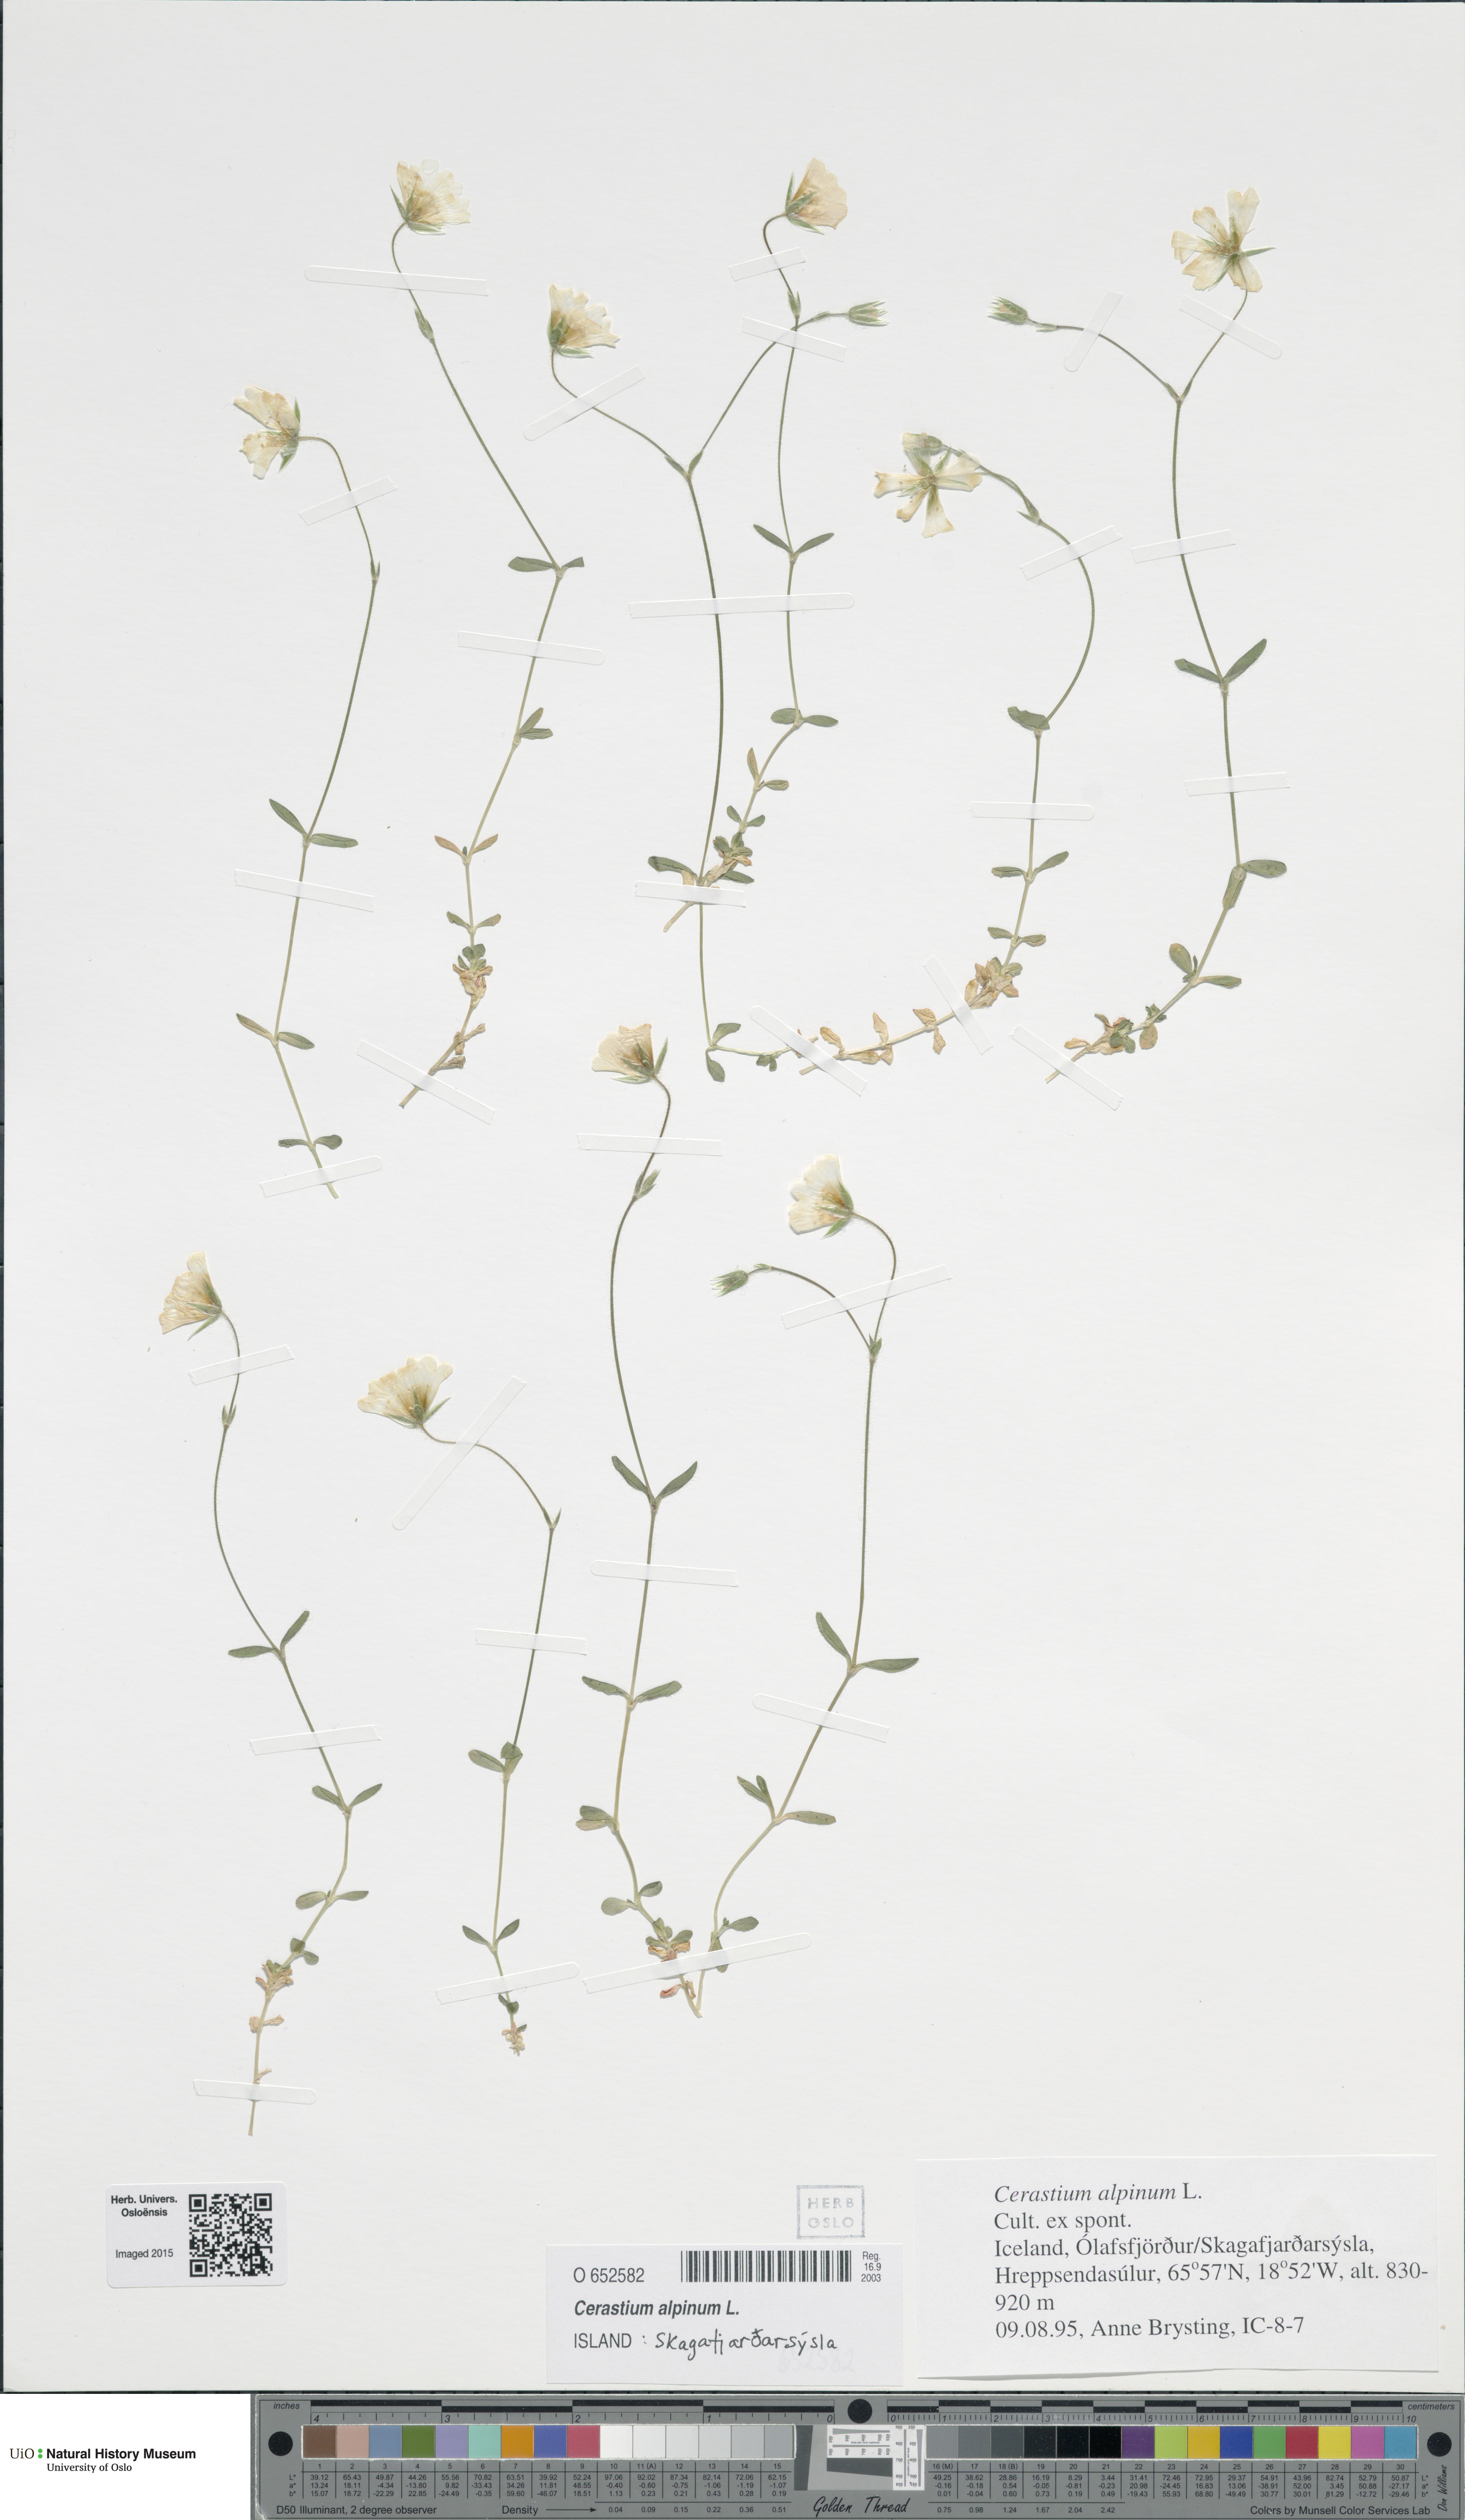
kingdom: Plantae
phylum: Tracheophyta
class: Magnoliopsida
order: Caryophyllales
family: Caryophyllaceae
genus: Cerastium
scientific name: Cerastium alpinum
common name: Alpine mouse-ear
